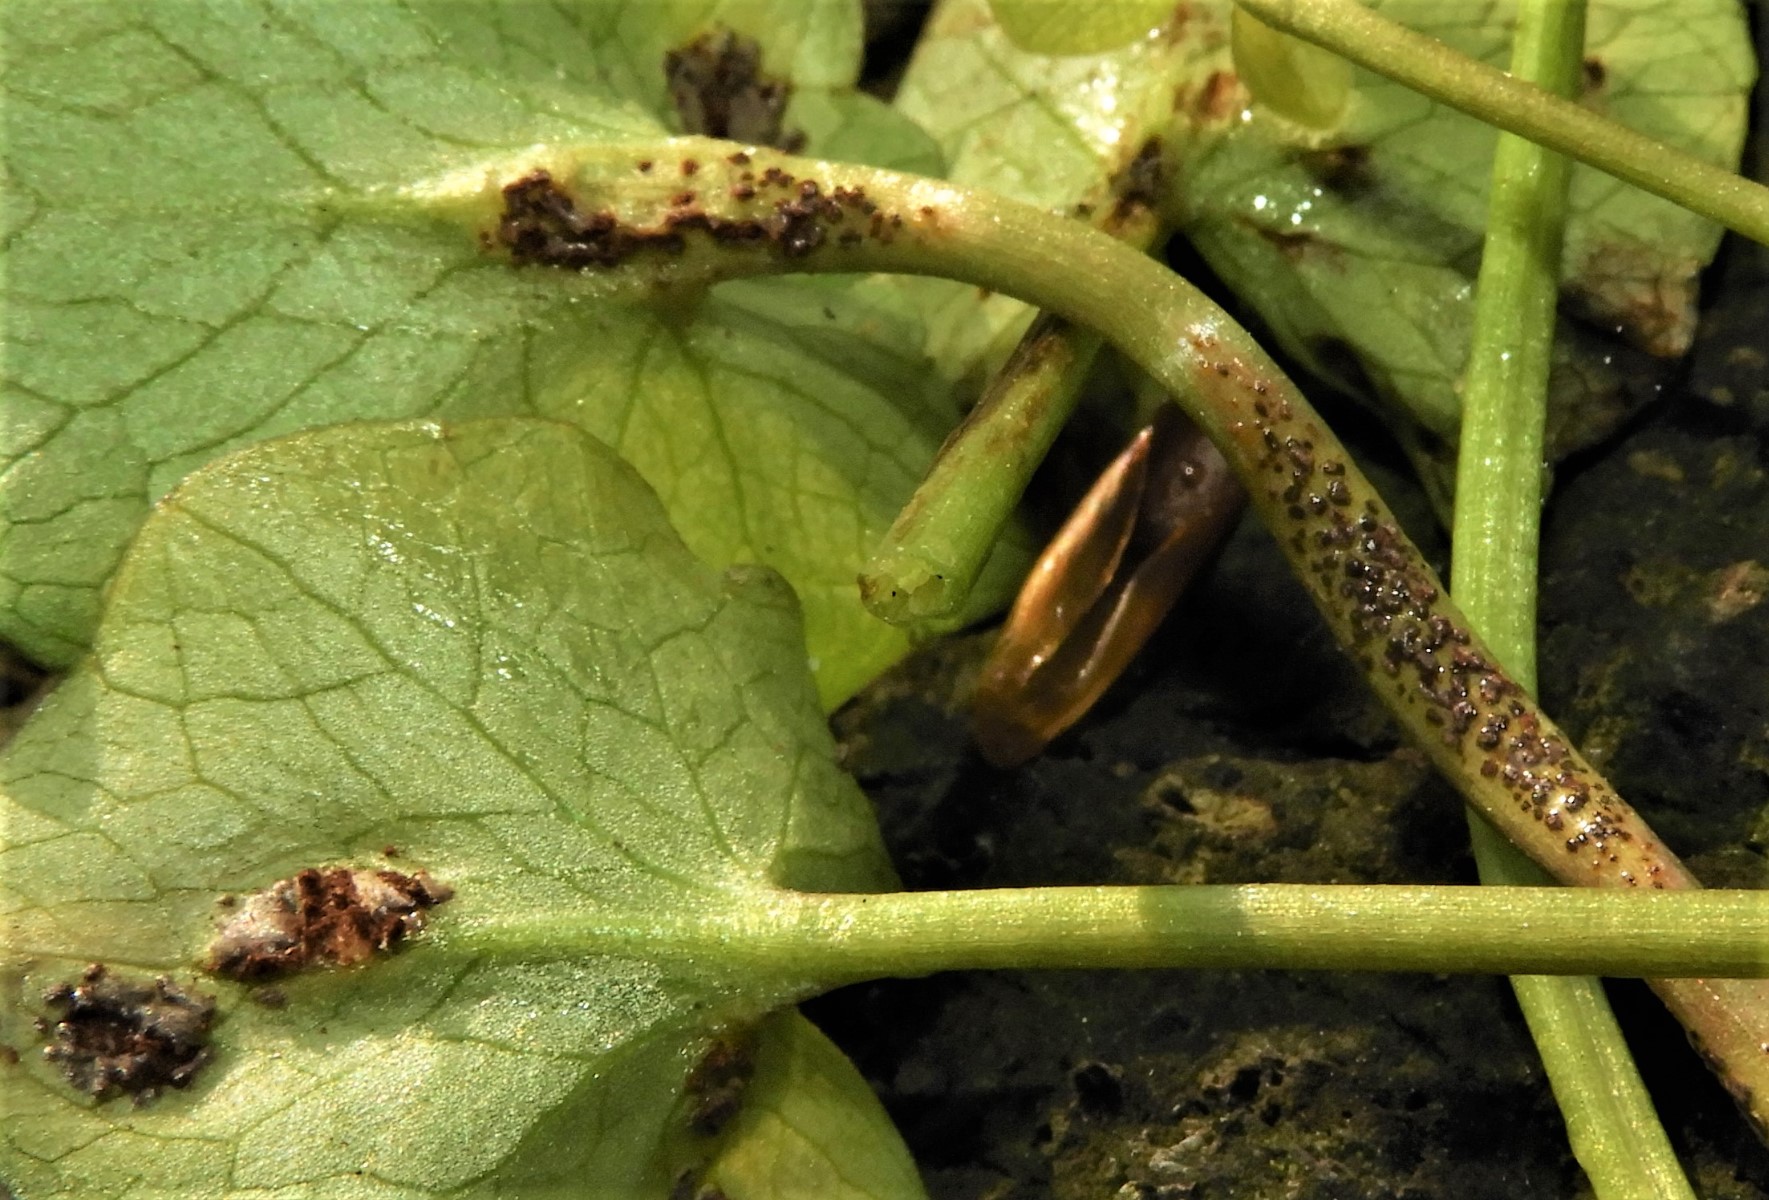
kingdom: Fungi
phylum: Basidiomycota
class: Pucciniomycetes
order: Pucciniales
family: Pucciniaceae
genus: Uromyces
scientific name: Uromyces ficariae
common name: vorterod-encellerust
